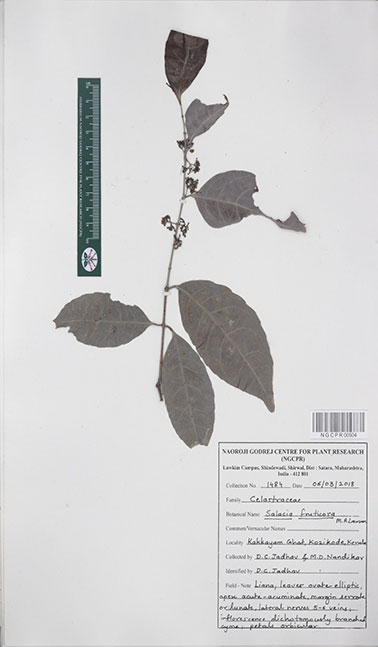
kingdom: Plantae
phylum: Tracheophyta
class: Magnoliopsida
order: Celastrales
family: Celastraceae
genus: Salacia
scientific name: Salacia fruticosa
